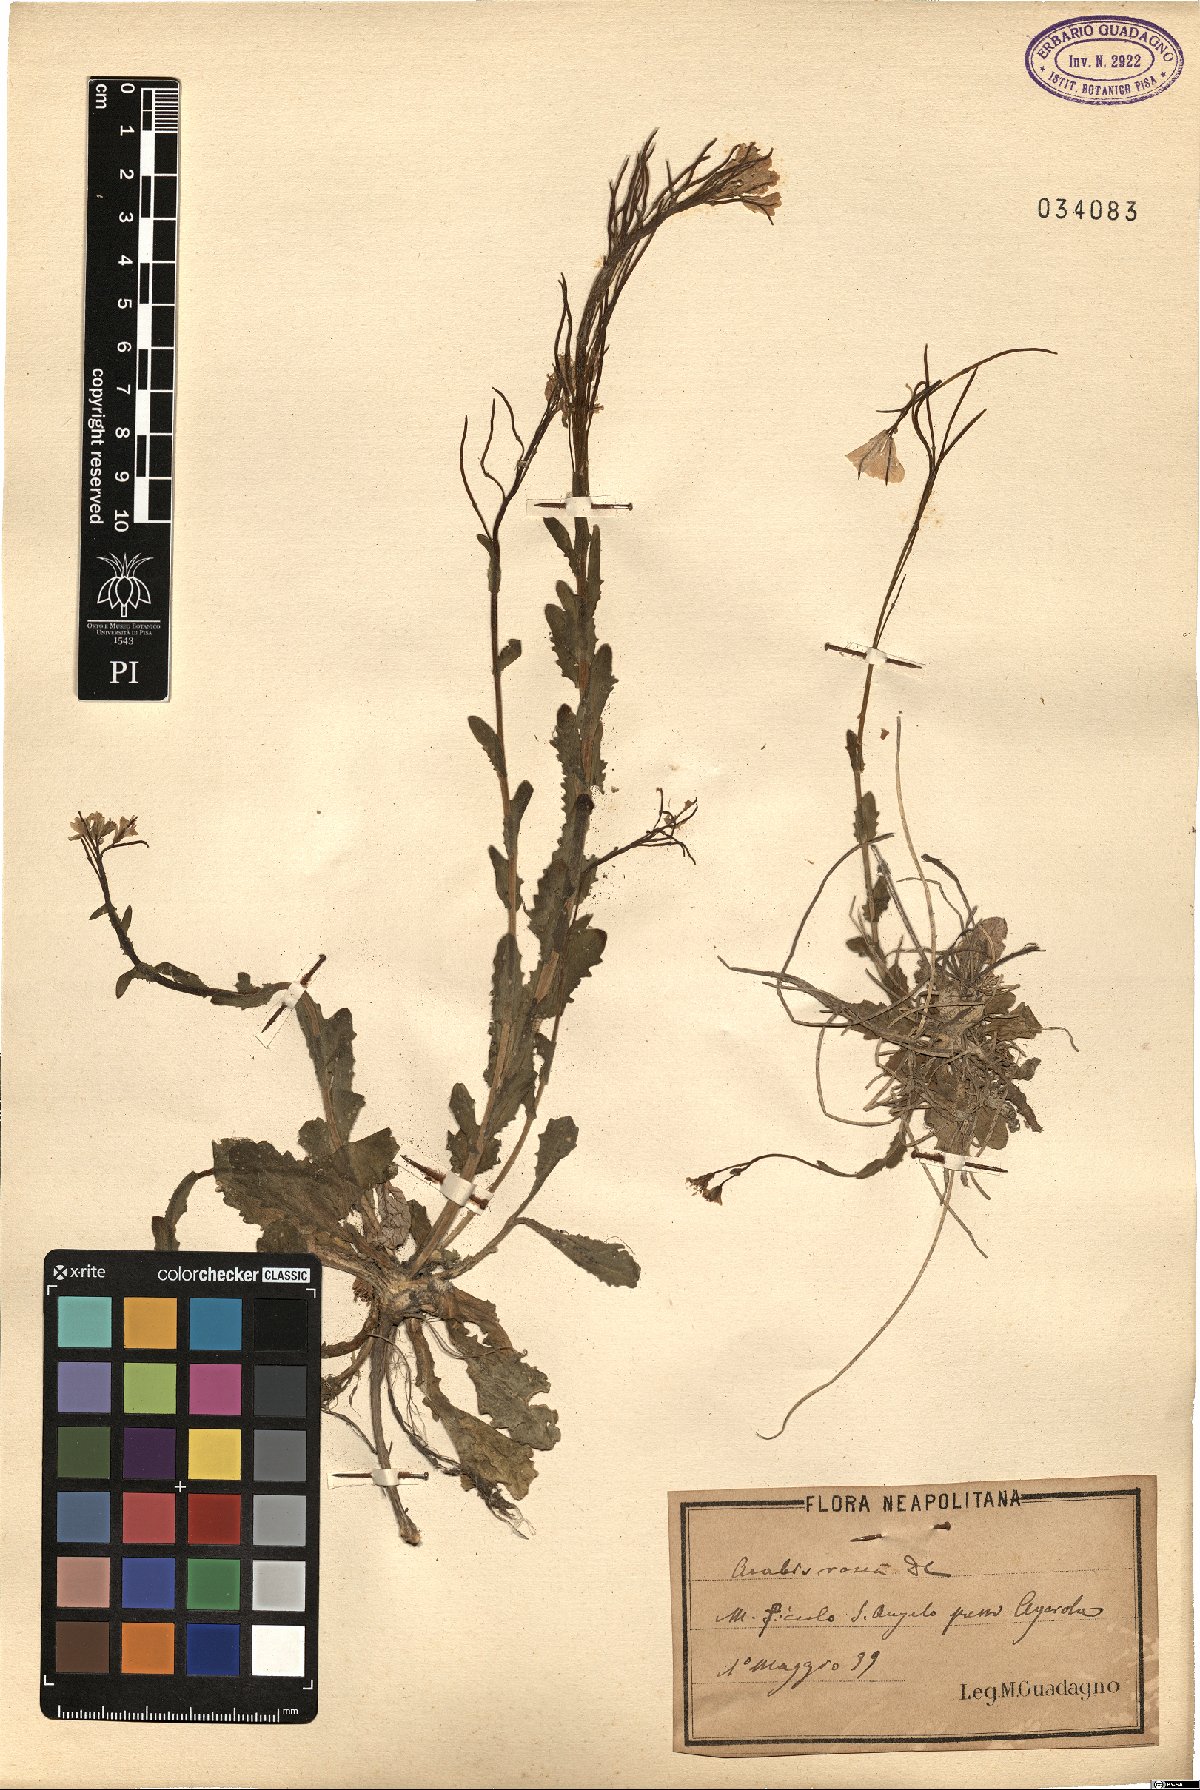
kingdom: Plantae
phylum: Tracheophyta
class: Magnoliopsida
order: Brassicales
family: Brassicaceae
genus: Arabis
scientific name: Arabis collina
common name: Rosy cress
